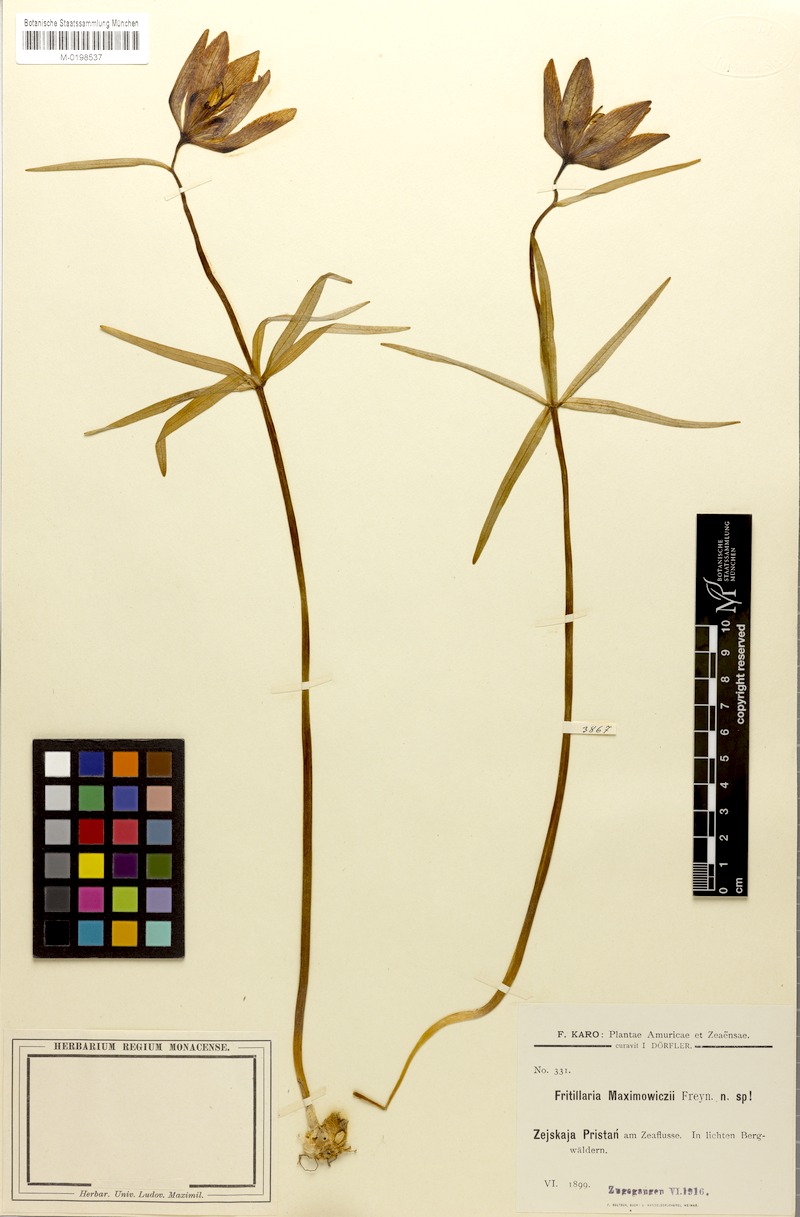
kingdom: Plantae
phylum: Tracheophyta
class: Liliopsida
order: Liliales
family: Liliaceae
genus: Fritillaria
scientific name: Fritillaria maximowiczii
